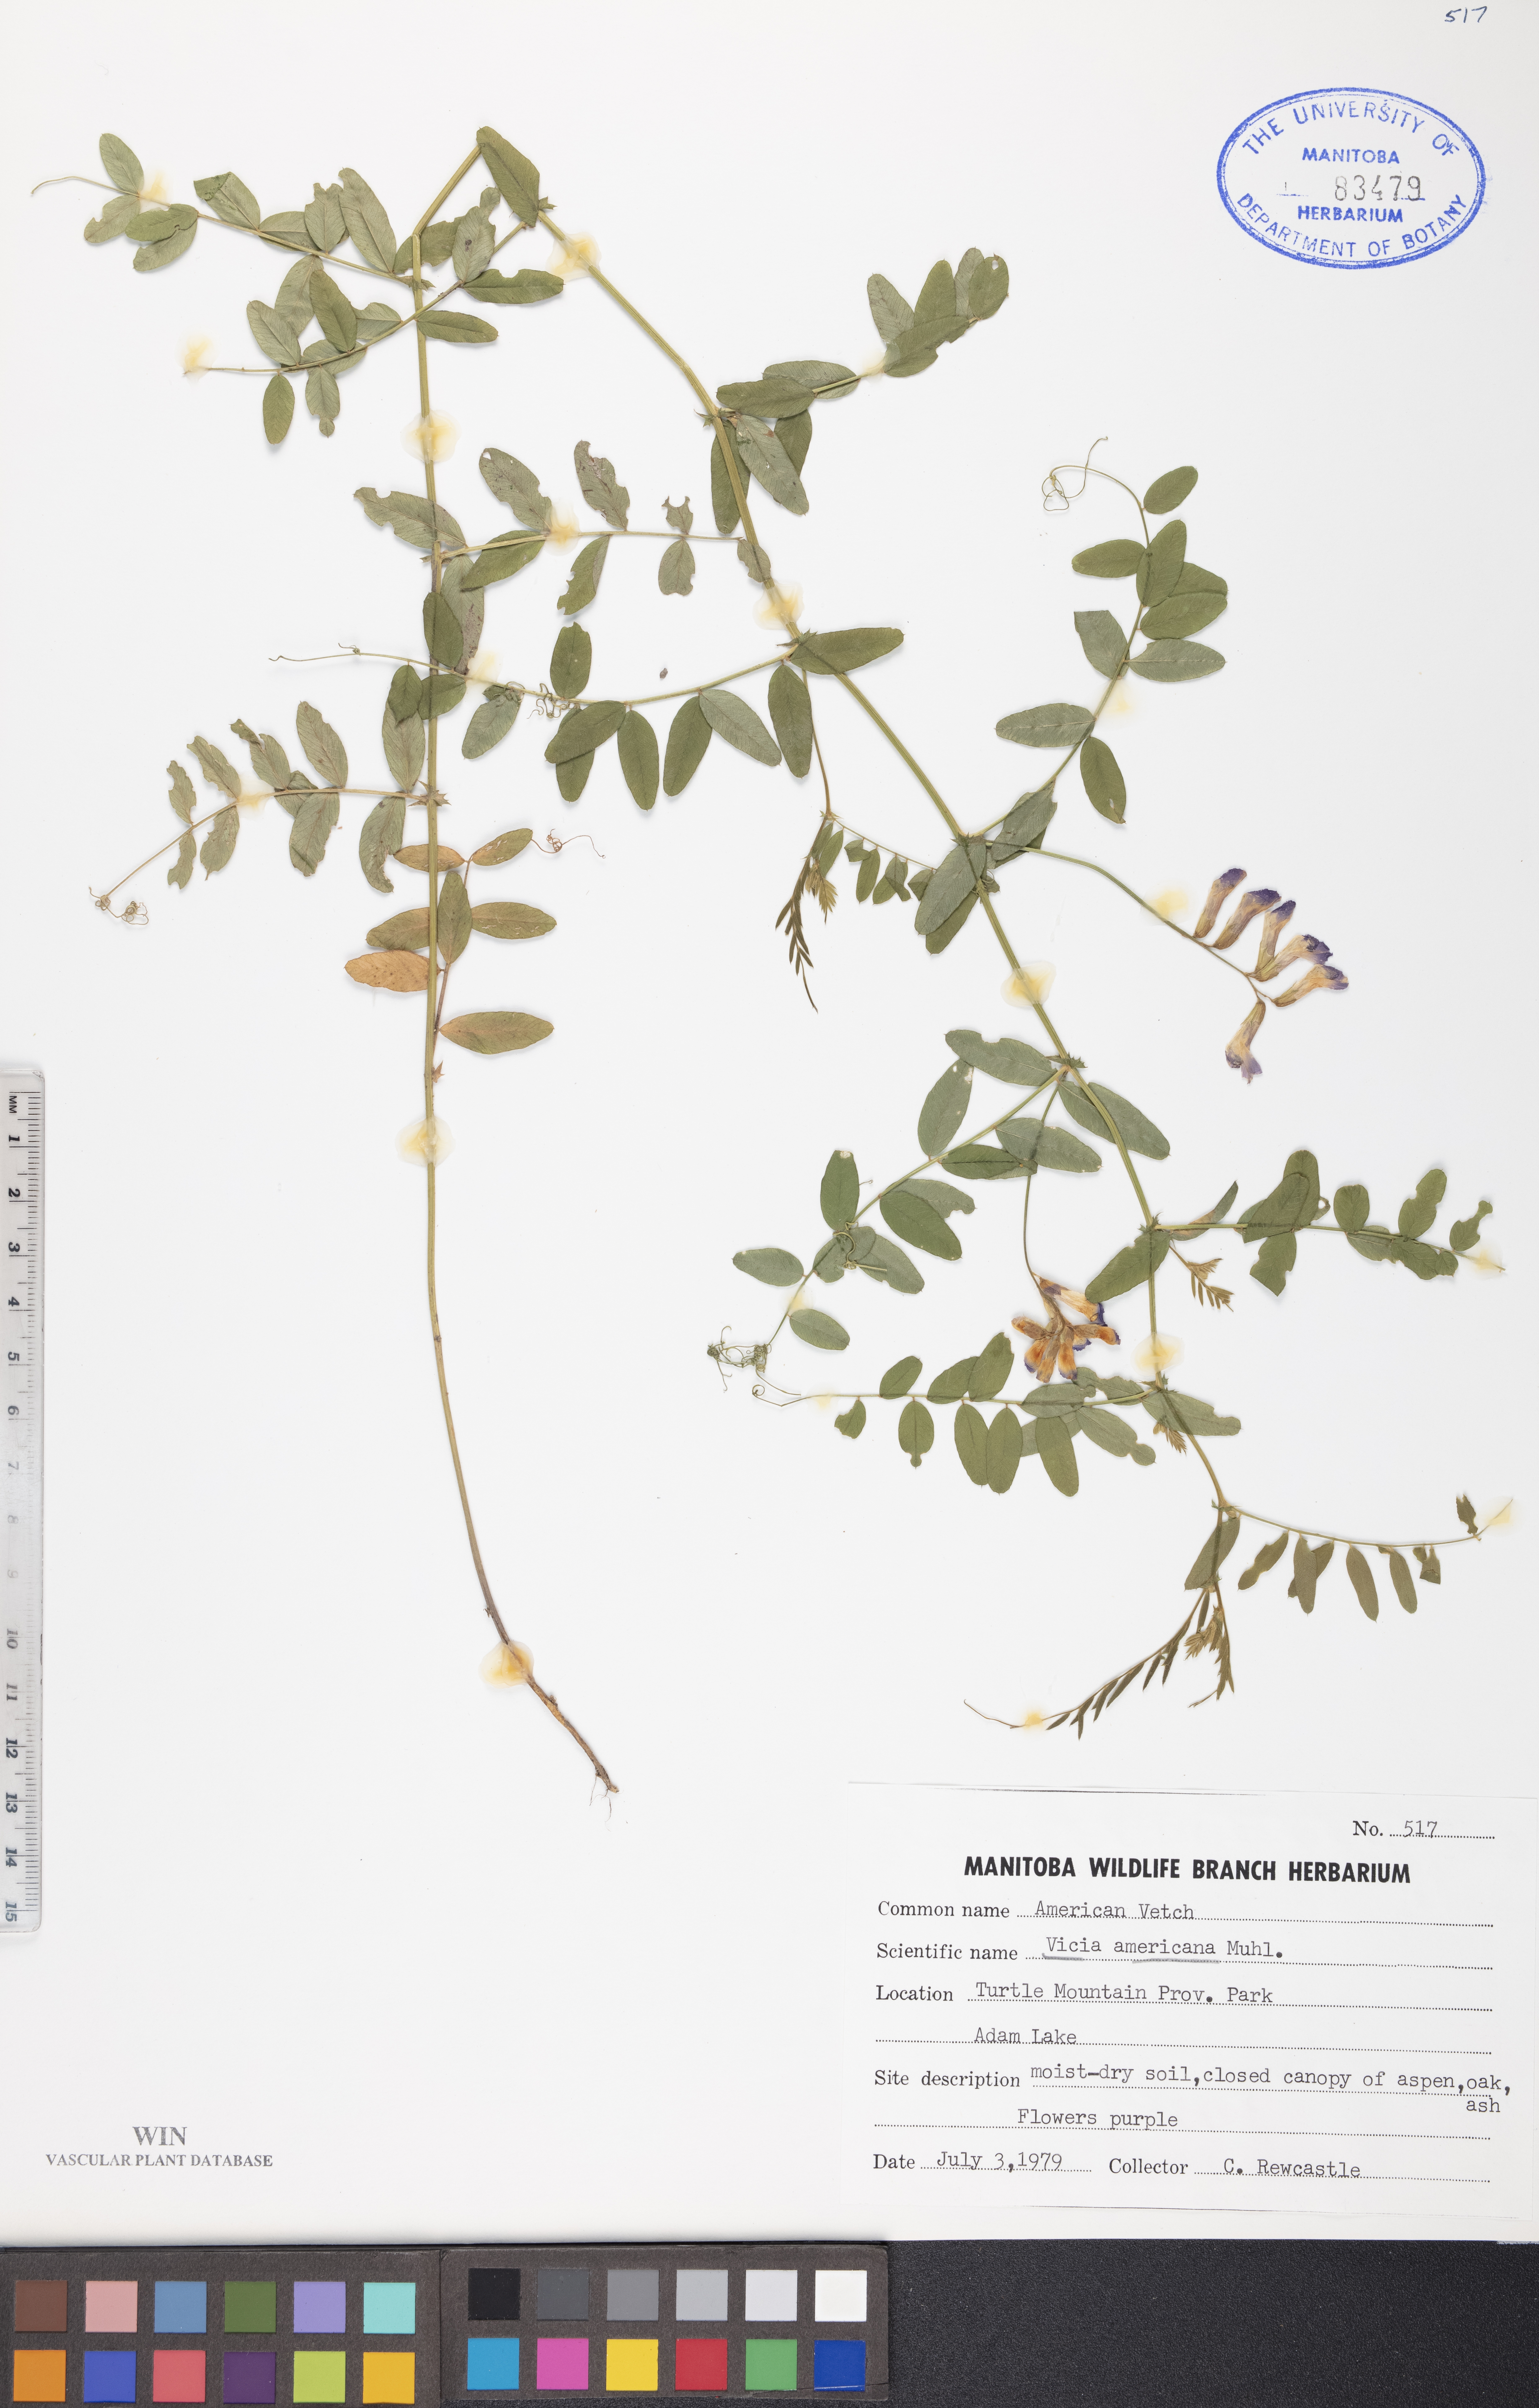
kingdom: Plantae
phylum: Tracheophyta
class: Magnoliopsida
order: Fabales
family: Fabaceae
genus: Vicia
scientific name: Vicia americana
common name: American vetch
